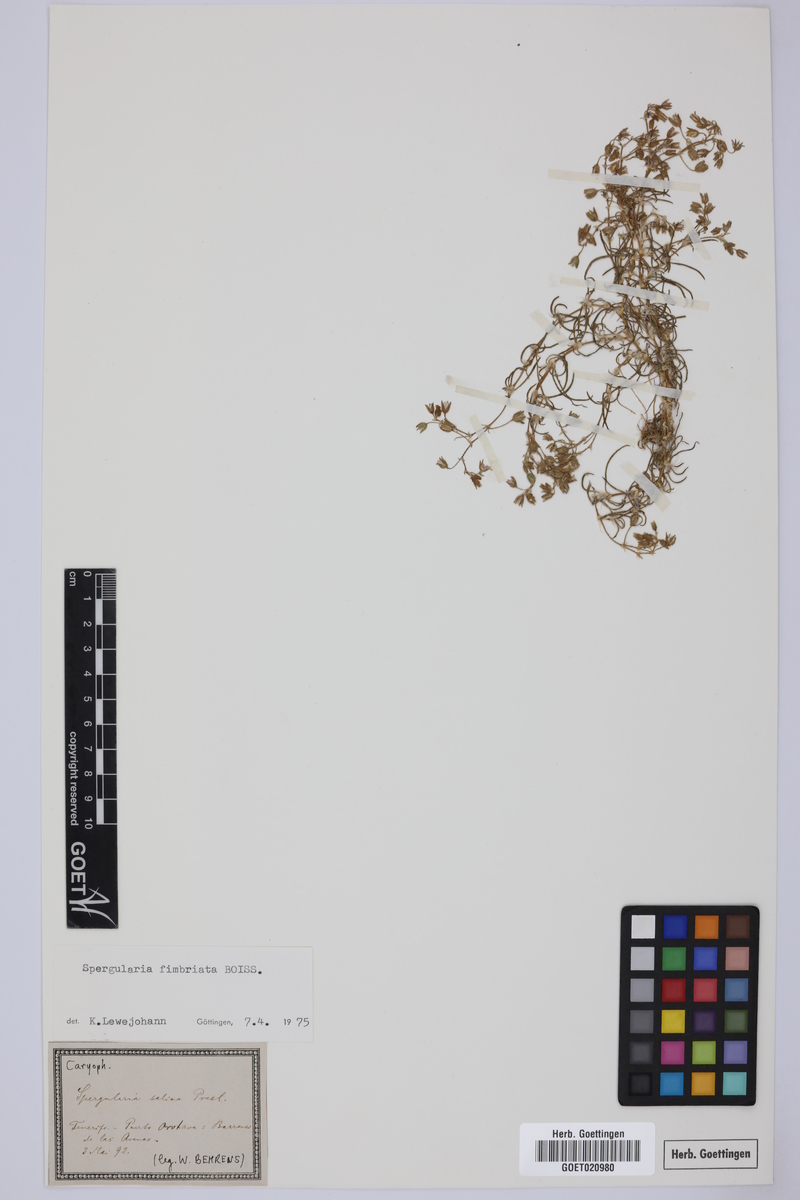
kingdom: Plantae
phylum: Tracheophyta
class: Magnoliopsida
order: Caryophyllales
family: Caryophyllaceae
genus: Spergularia
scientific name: Spergularia fimbriata
